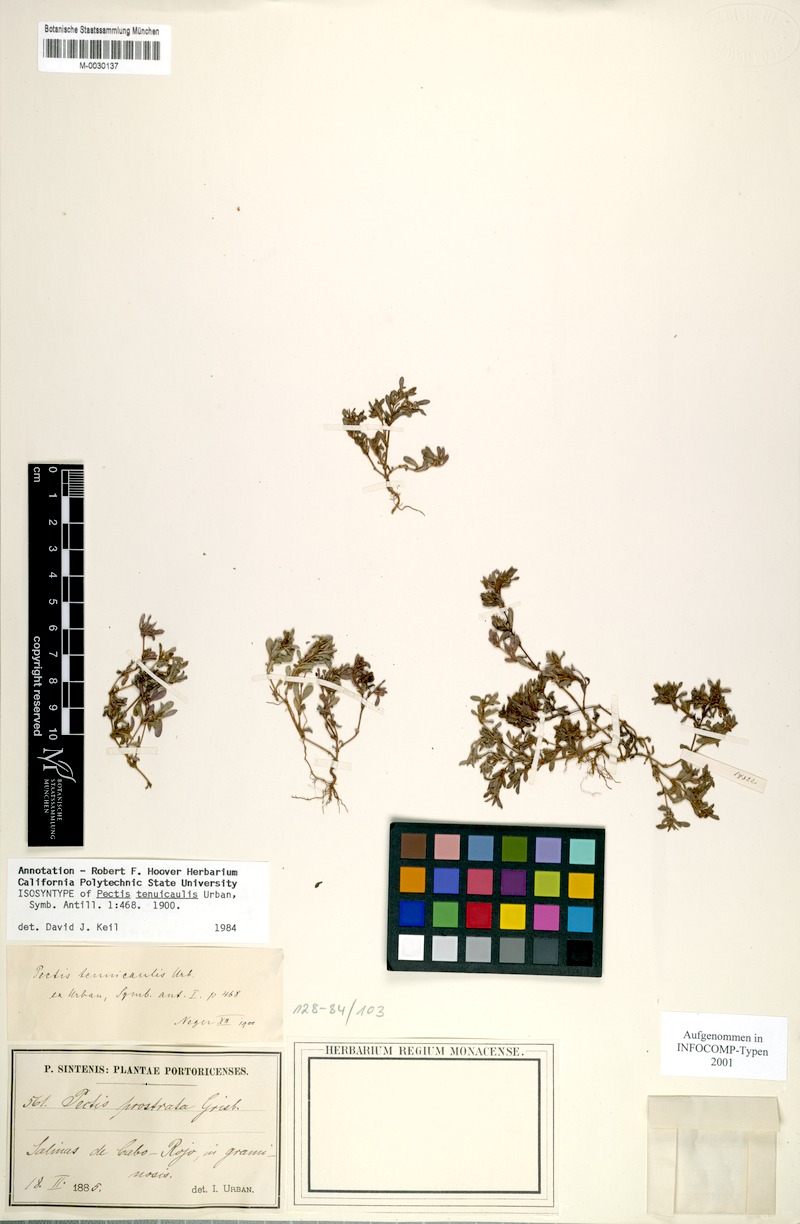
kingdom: Plantae
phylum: Tracheophyta
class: Magnoliopsida
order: Asterales
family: Asteraceae
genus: Pectis
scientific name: Pectis tenuicaulis
